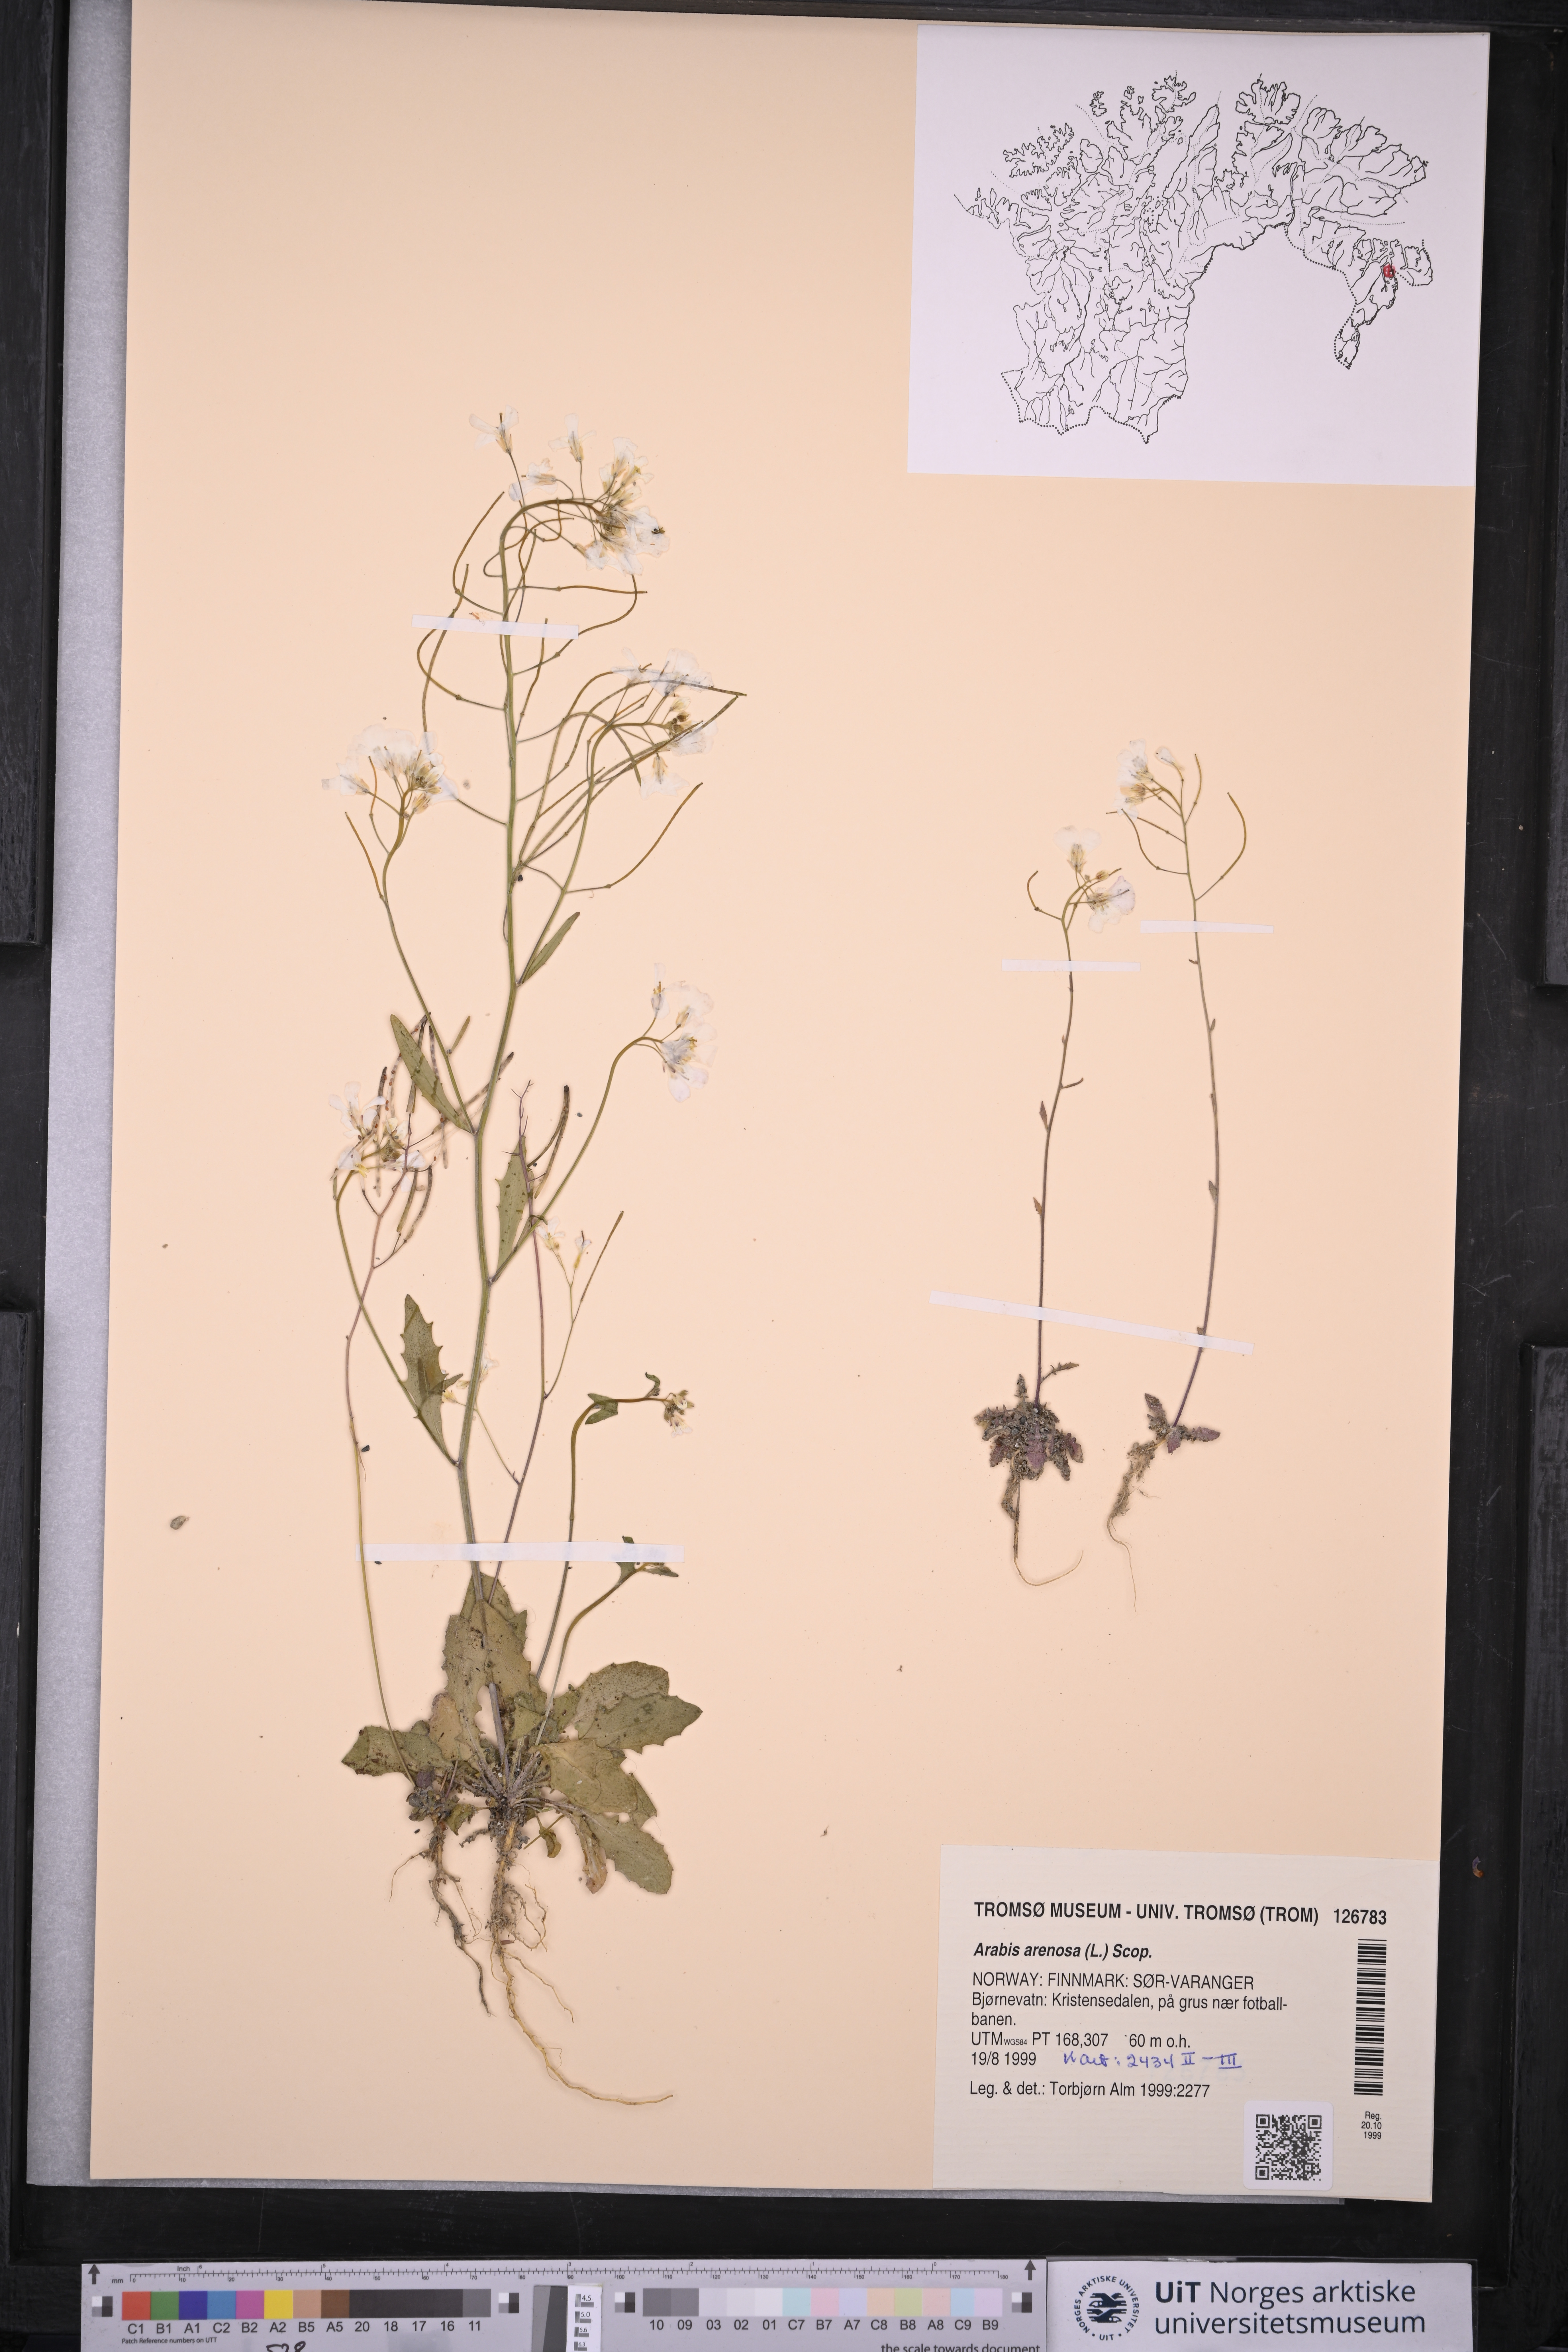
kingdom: Plantae
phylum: Tracheophyta
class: Magnoliopsida
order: Brassicales
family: Brassicaceae
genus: Arabidopsis
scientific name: Arabidopsis arenosa
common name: Sand rock-cress
